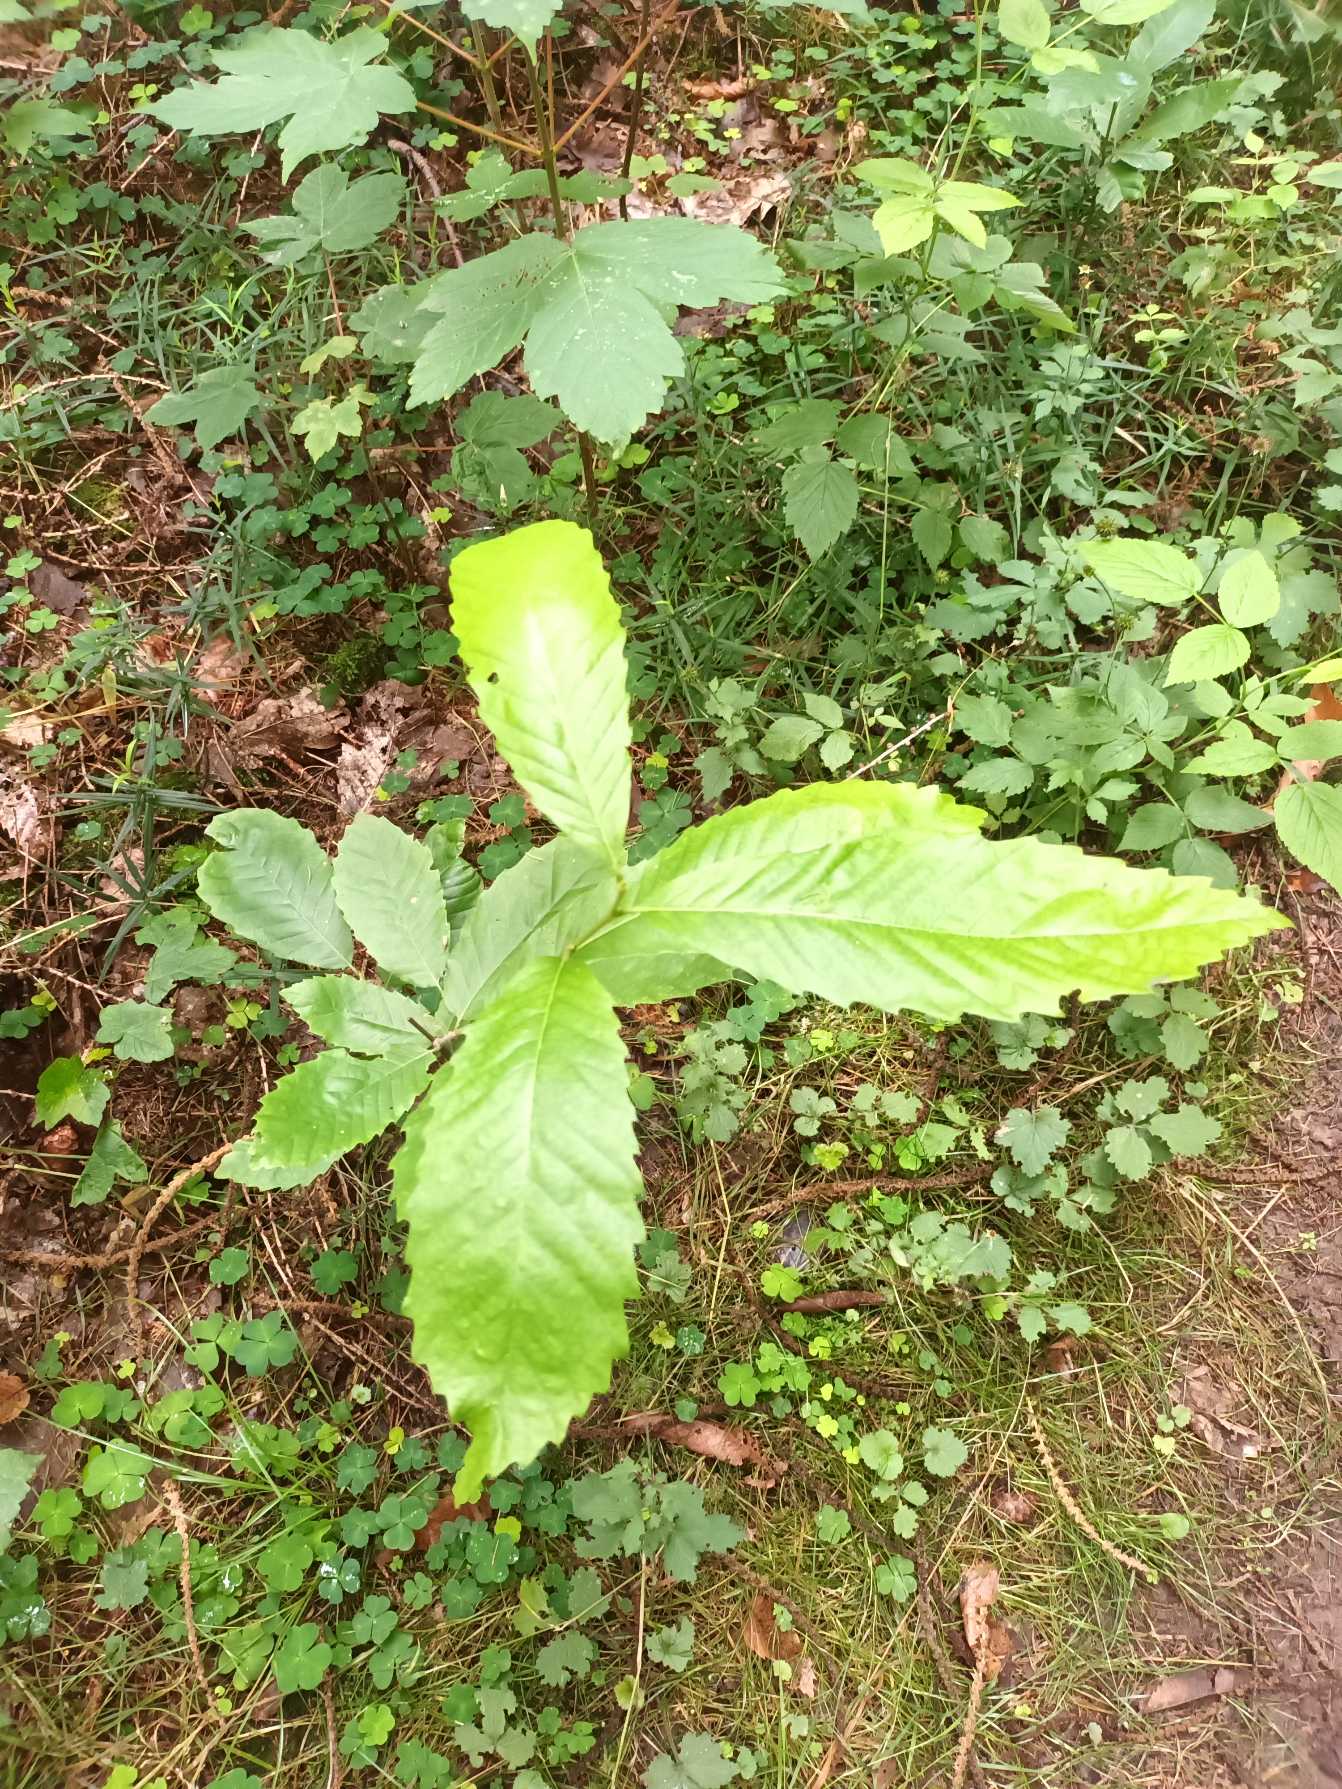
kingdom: Plantae
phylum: Tracheophyta
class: Magnoliopsida
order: Fagales
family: Fagaceae
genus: Castanea
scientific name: Castanea sativa
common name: Ægte kastanie
